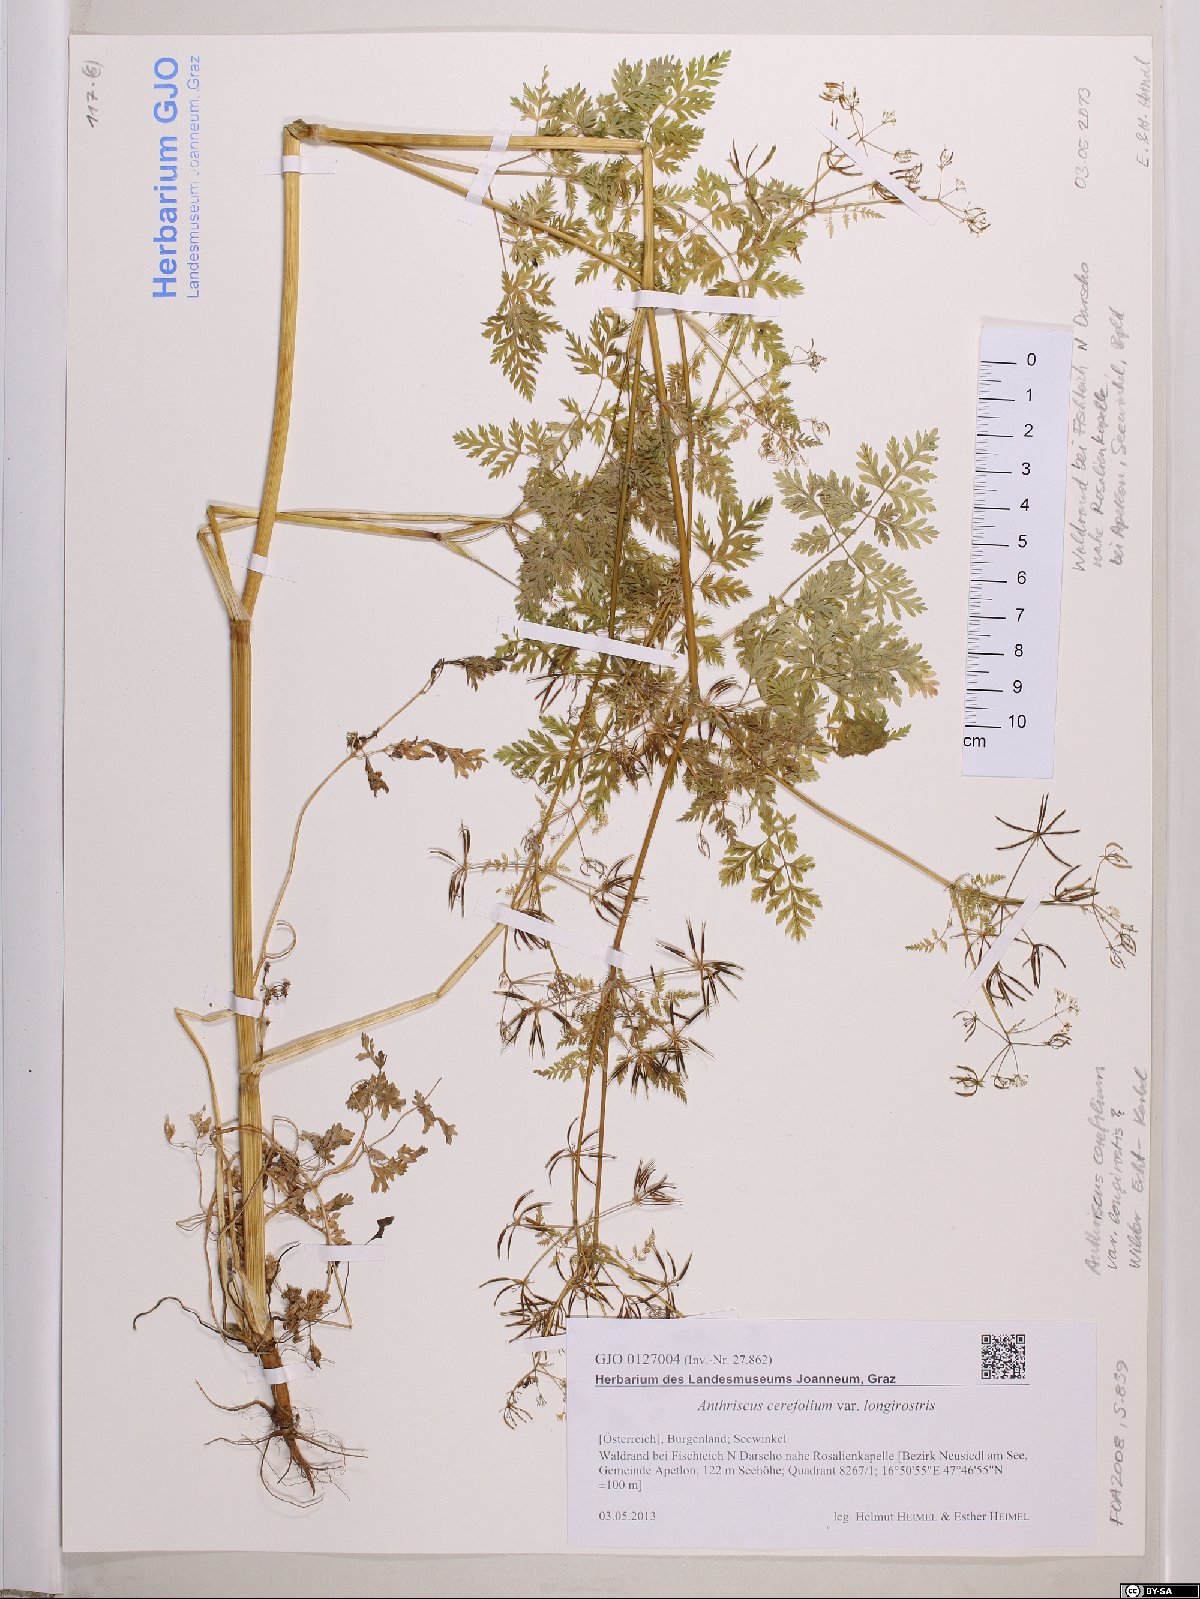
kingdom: Plantae
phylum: Tracheophyta
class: Magnoliopsida
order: Apiales
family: Apiaceae
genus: Anthriscus
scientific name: Anthriscus cerefolium
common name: Garden chervil
